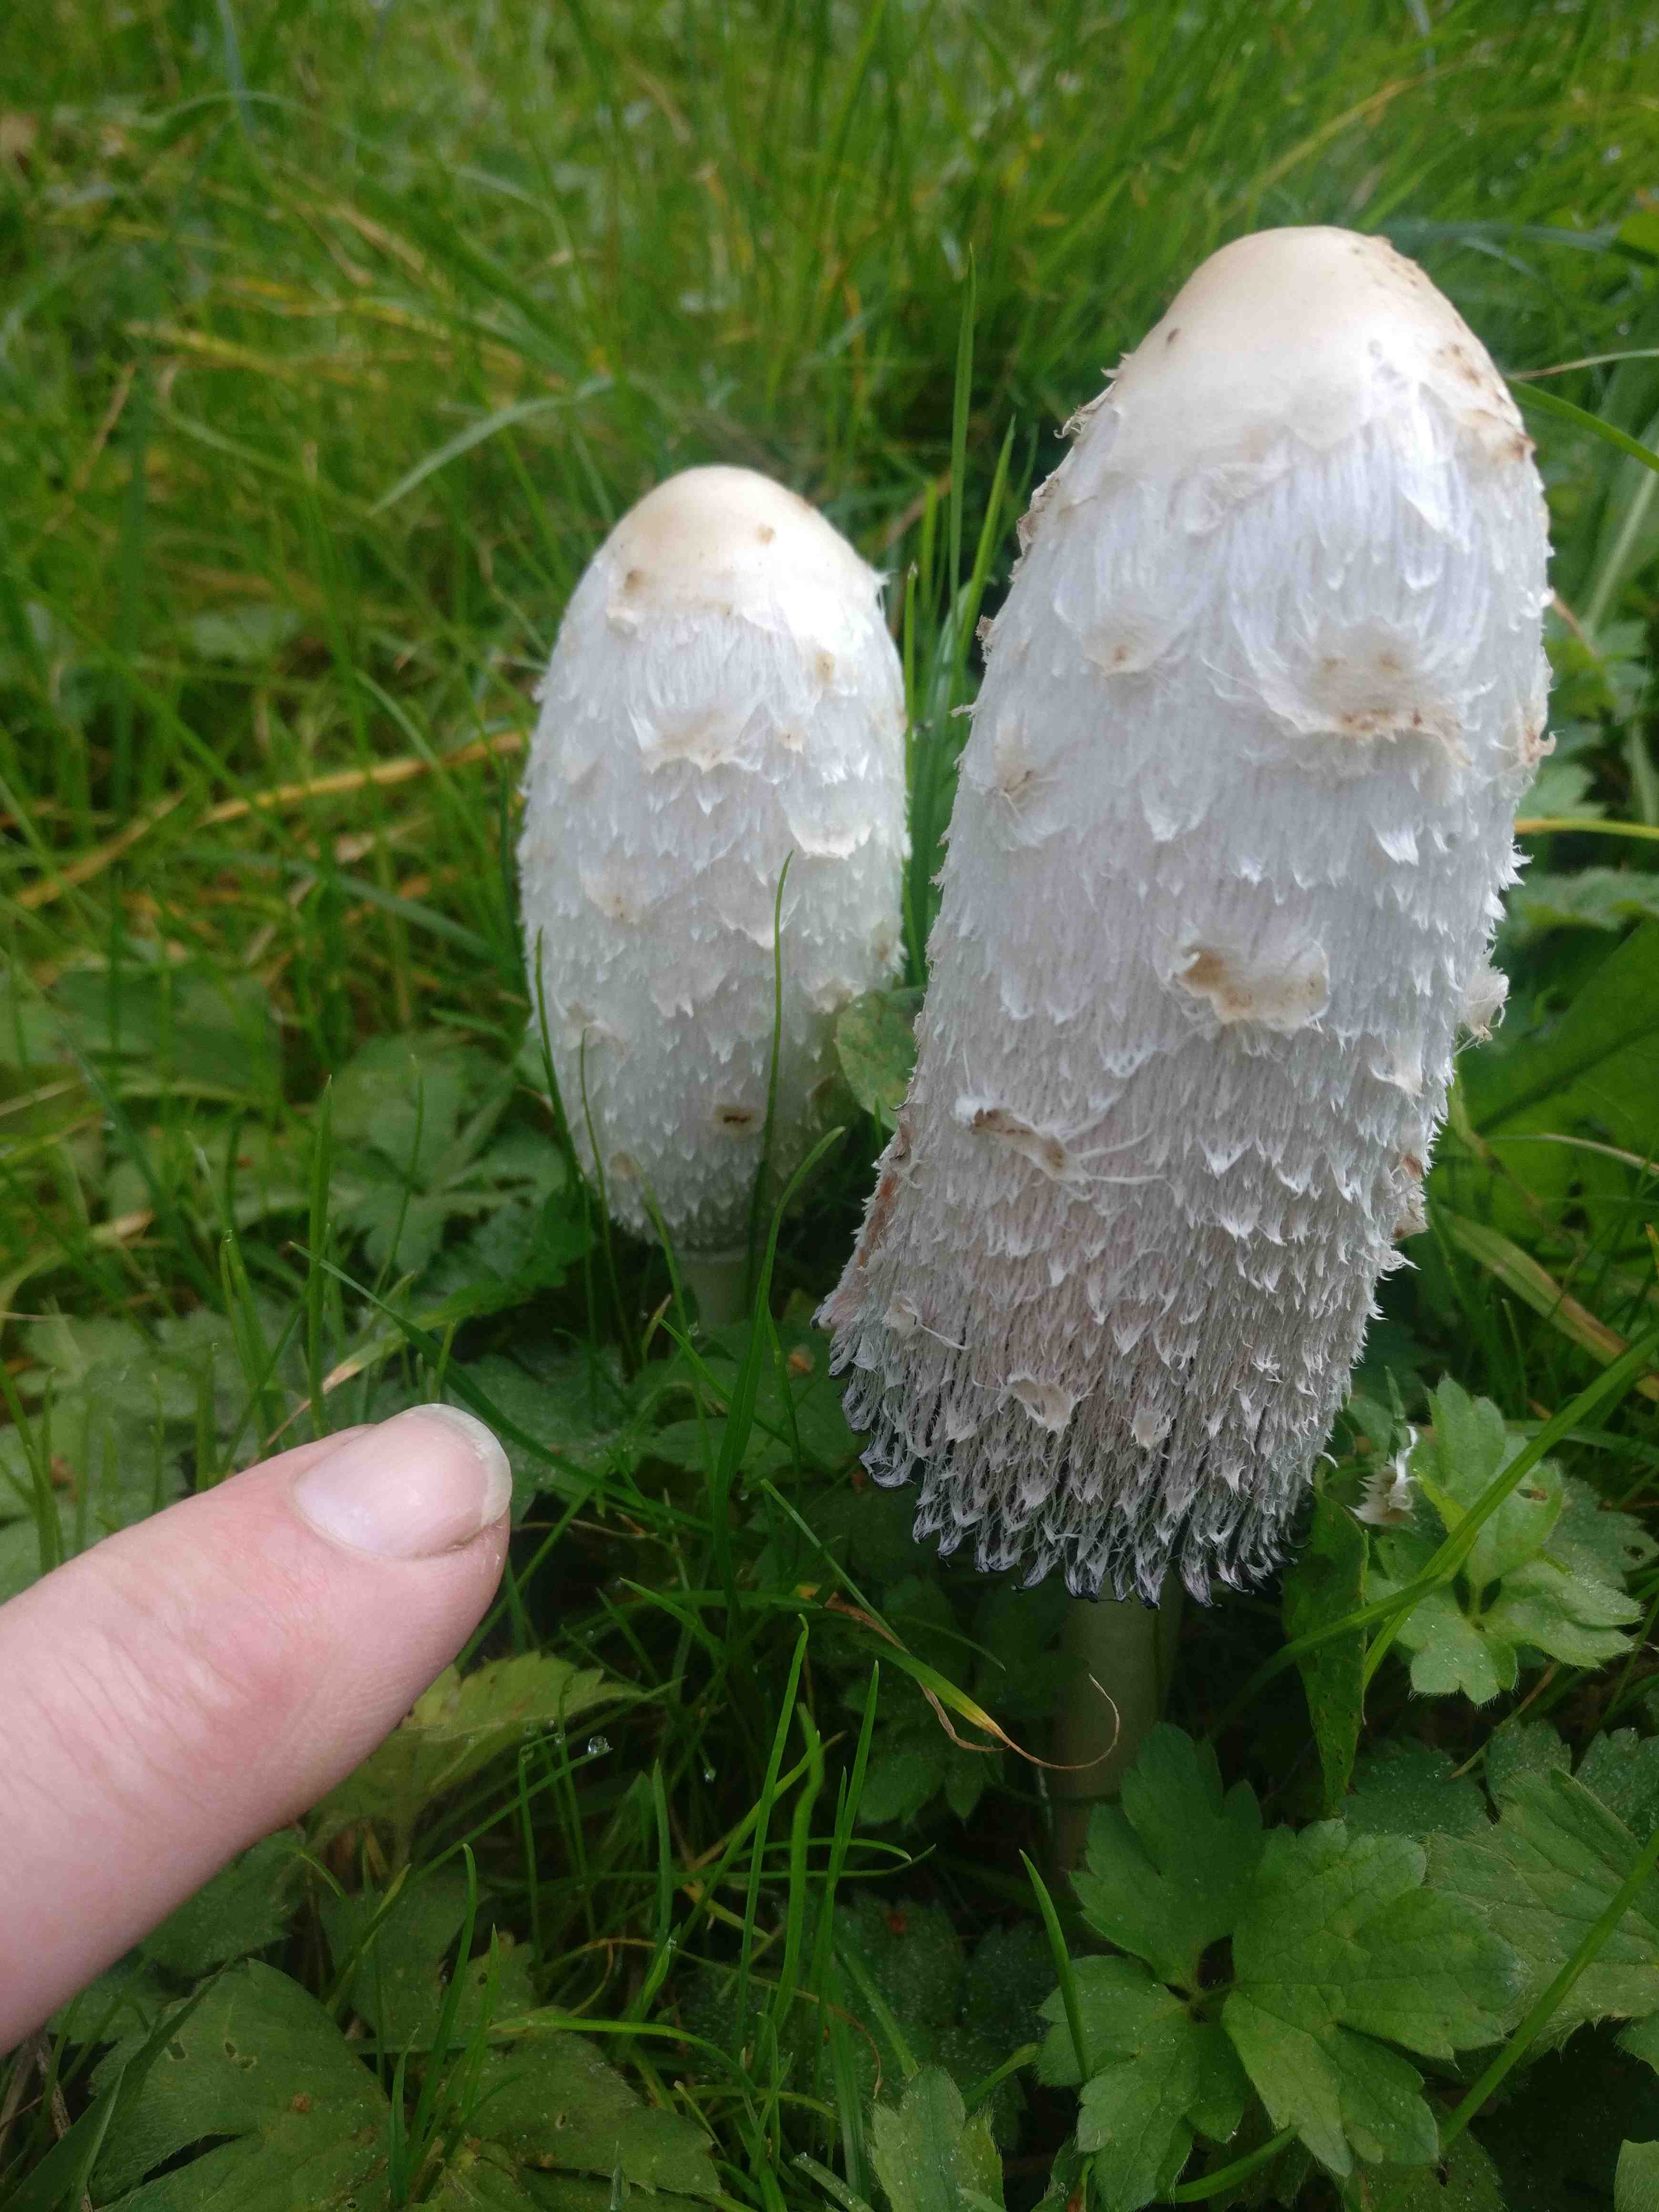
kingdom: Fungi
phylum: Basidiomycota
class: Agaricomycetes
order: Agaricales
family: Agaricaceae
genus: Coprinus
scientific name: Coprinus comatus
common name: stor parykhat
